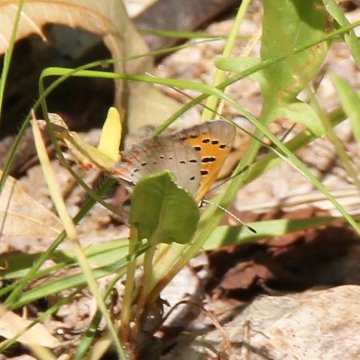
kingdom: Animalia
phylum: Arthropoda
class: Insecta
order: Lepidoptera
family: Lycaenidae
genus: Lycaena
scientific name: Lycaena phlaeas
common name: American Copper
